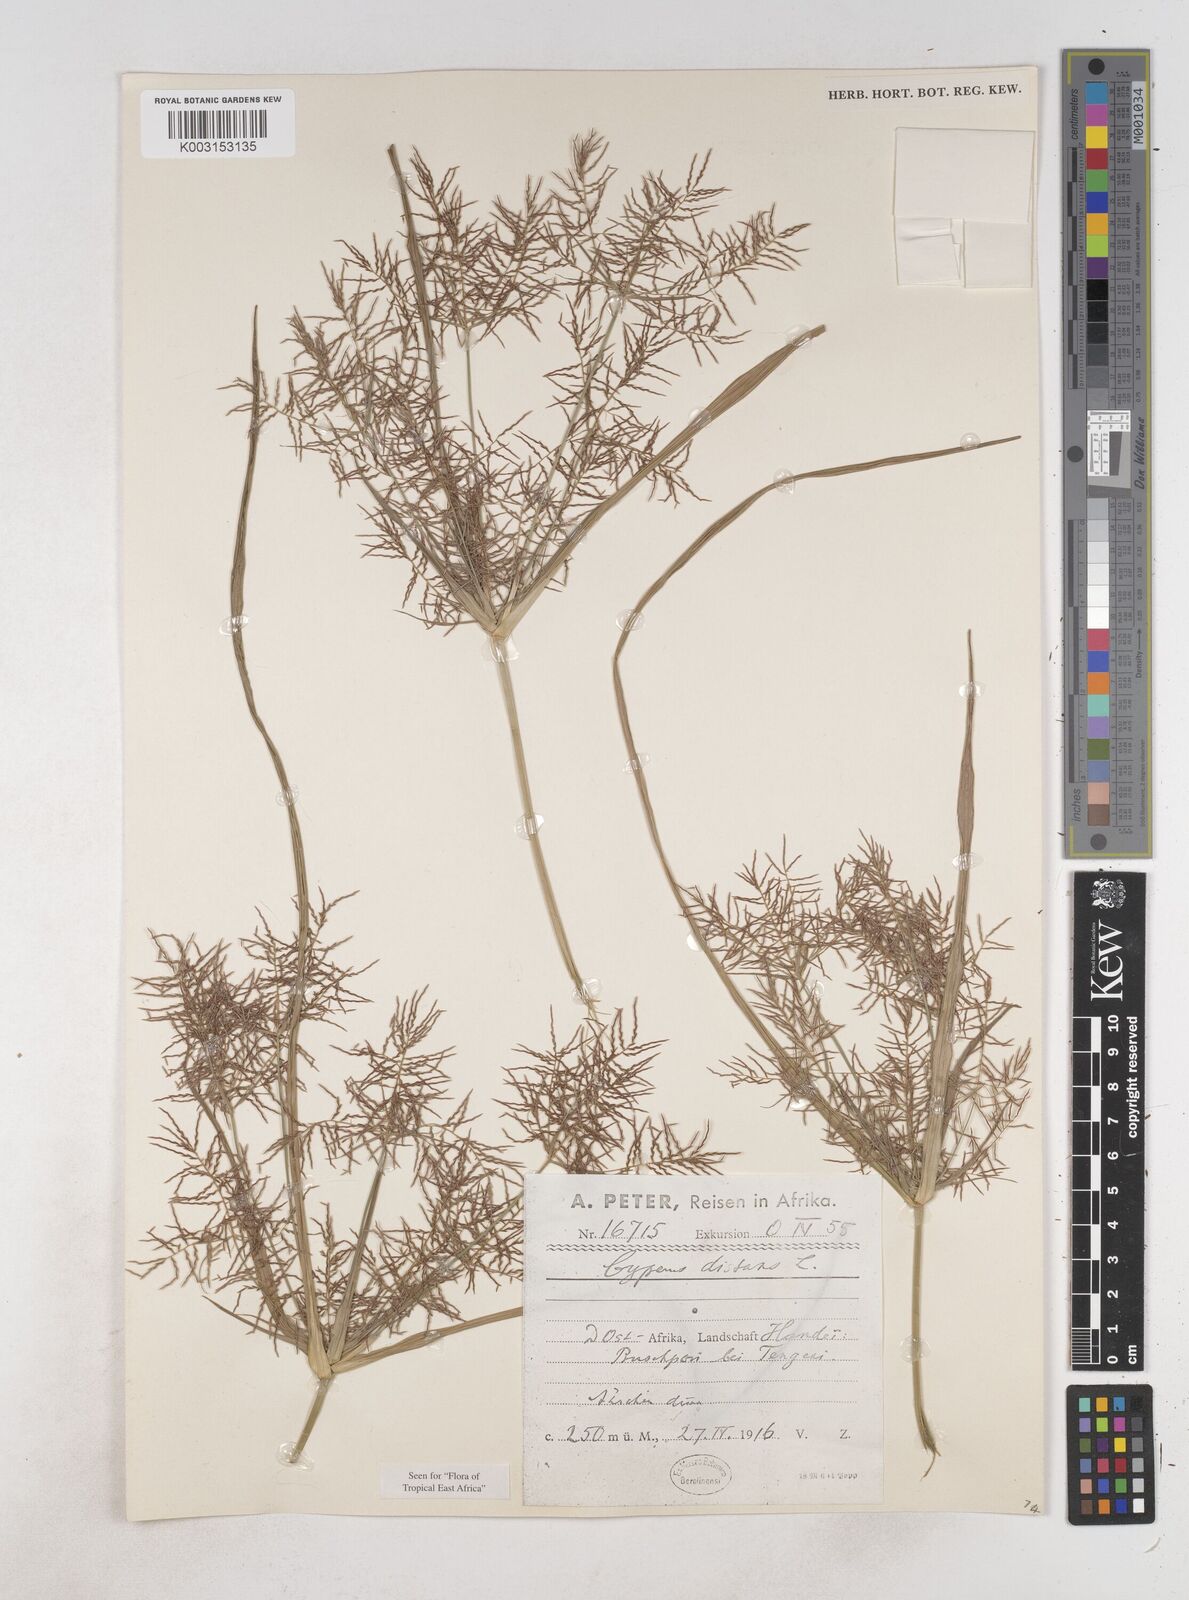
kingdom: Plantae
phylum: Tracheophyta
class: Liliopsida
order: Poales
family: Cyperaceae
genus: Cyperus
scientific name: Cyperus distans
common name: Slender cyperus
